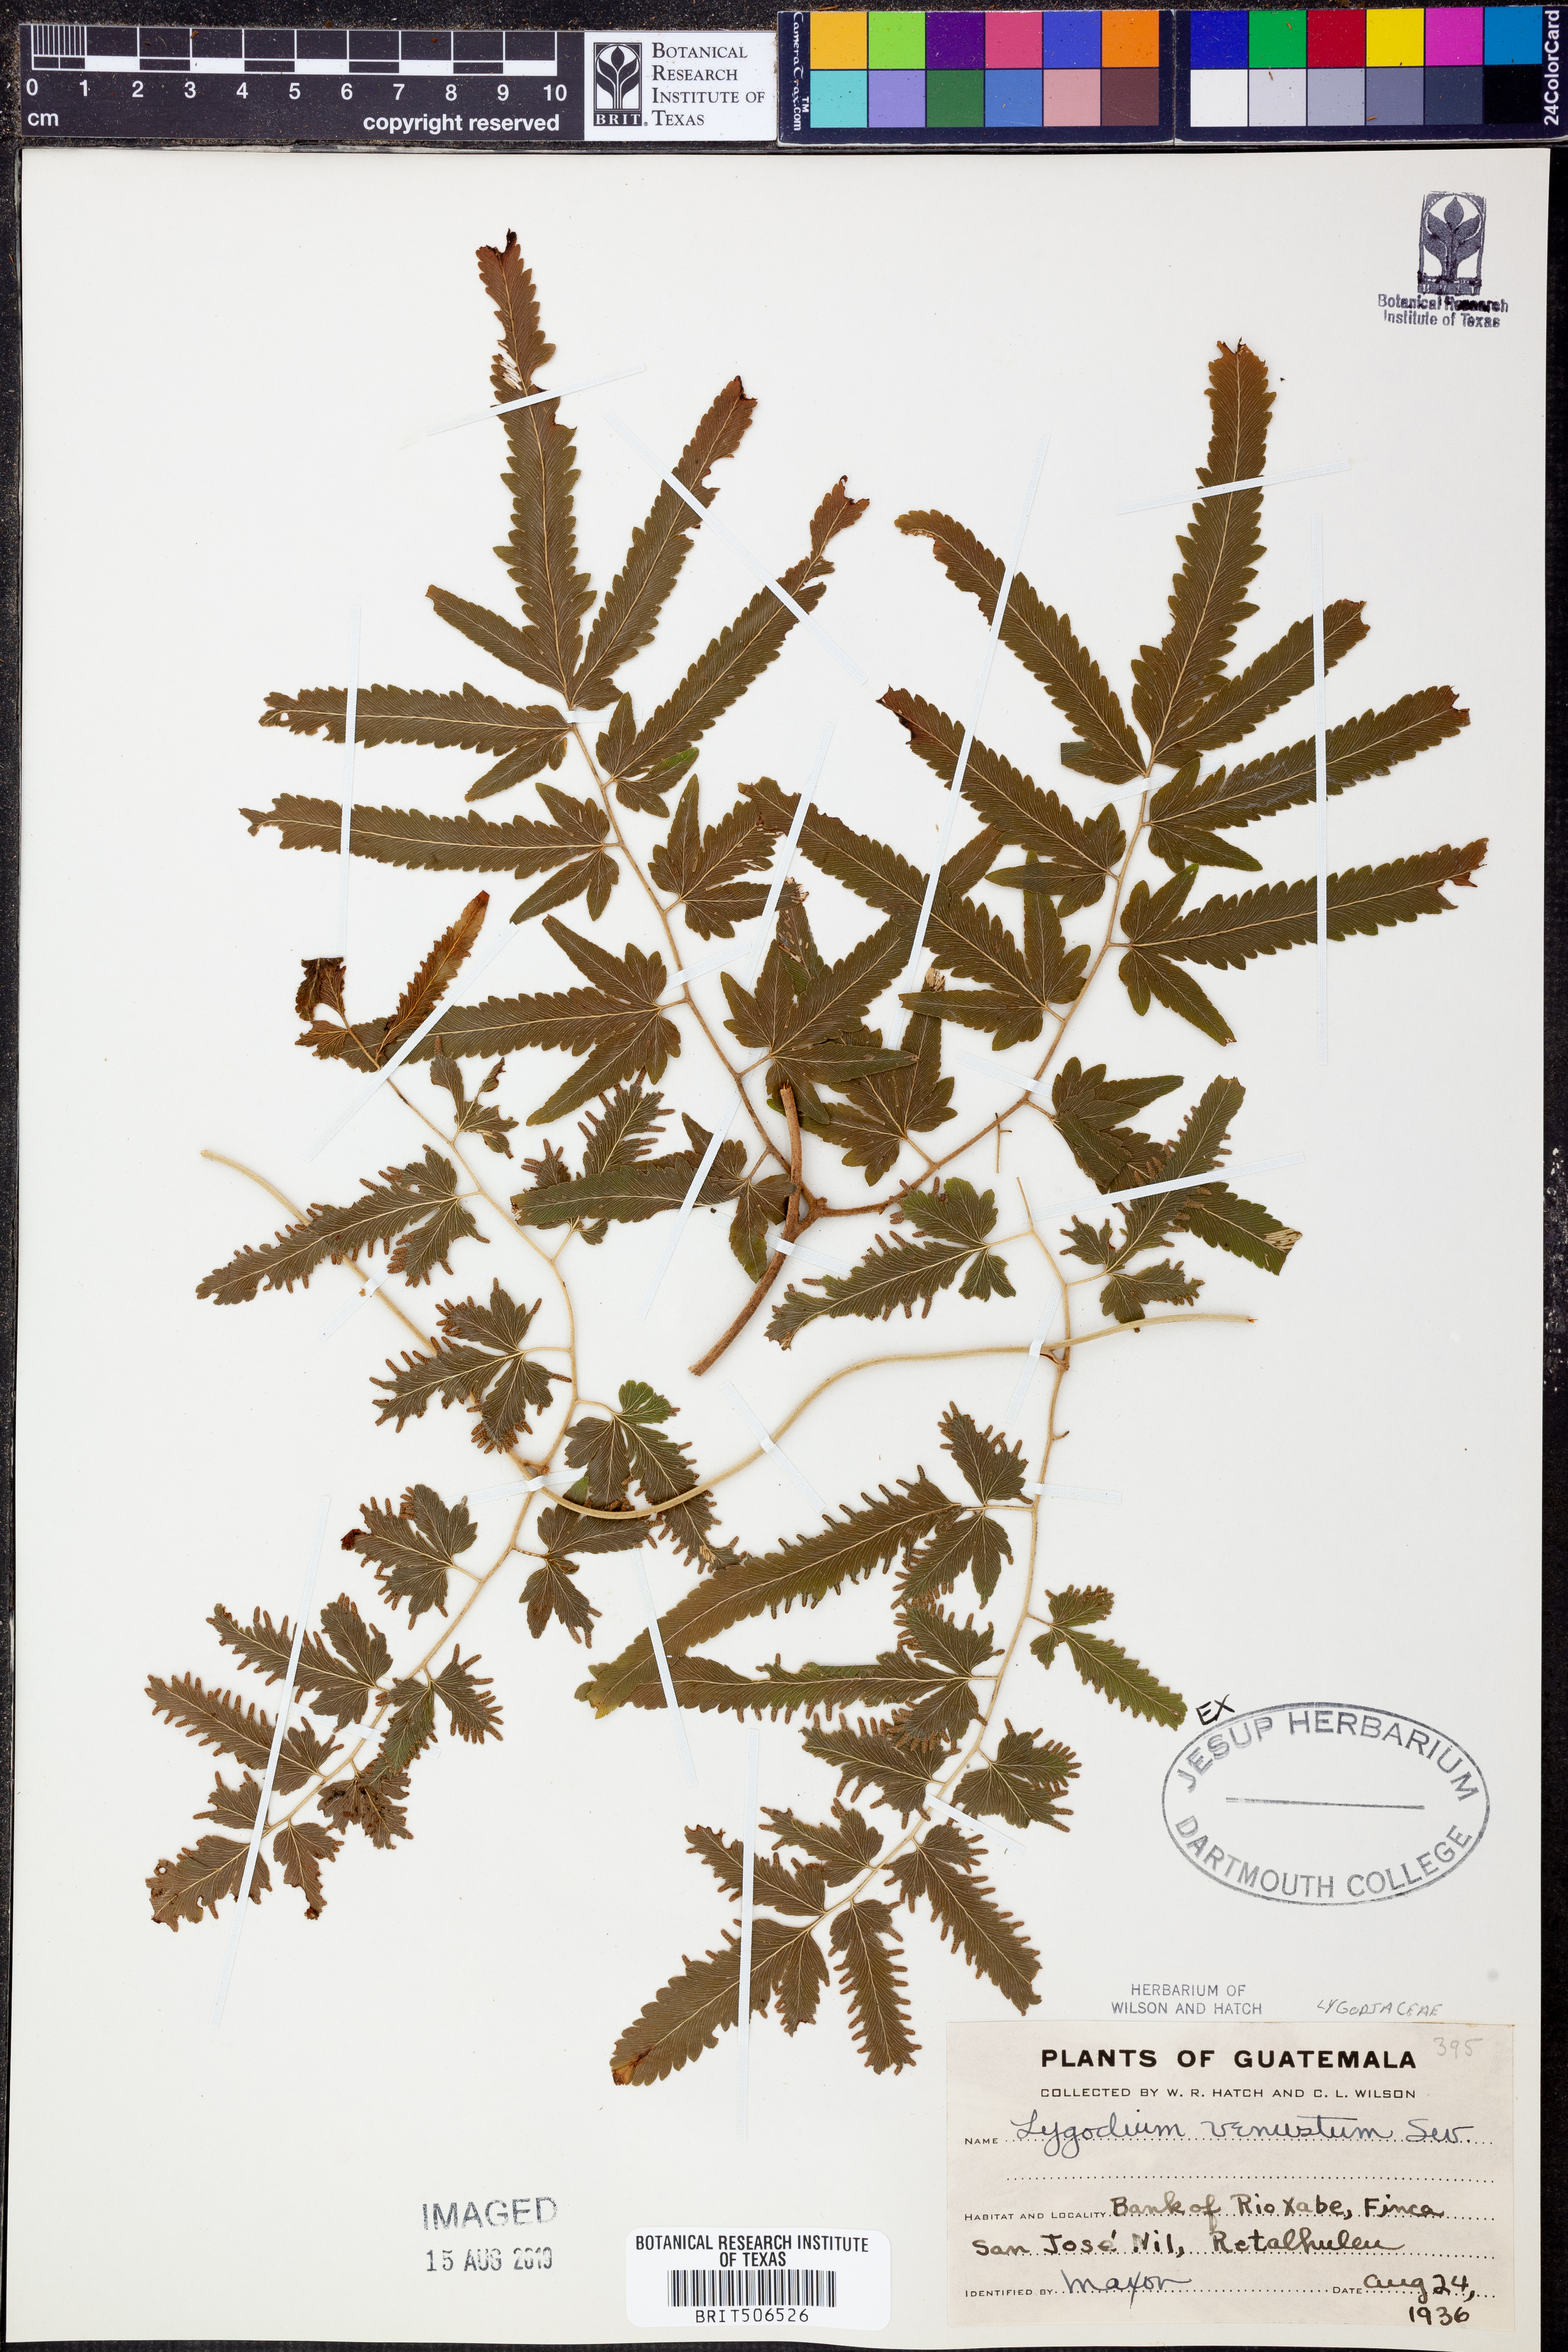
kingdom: Plantae
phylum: Tracheophyta
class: Polypodiopsida
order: Schizaeales
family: Lygodiaceae
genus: Lygodium
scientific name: Lygodium venustum
